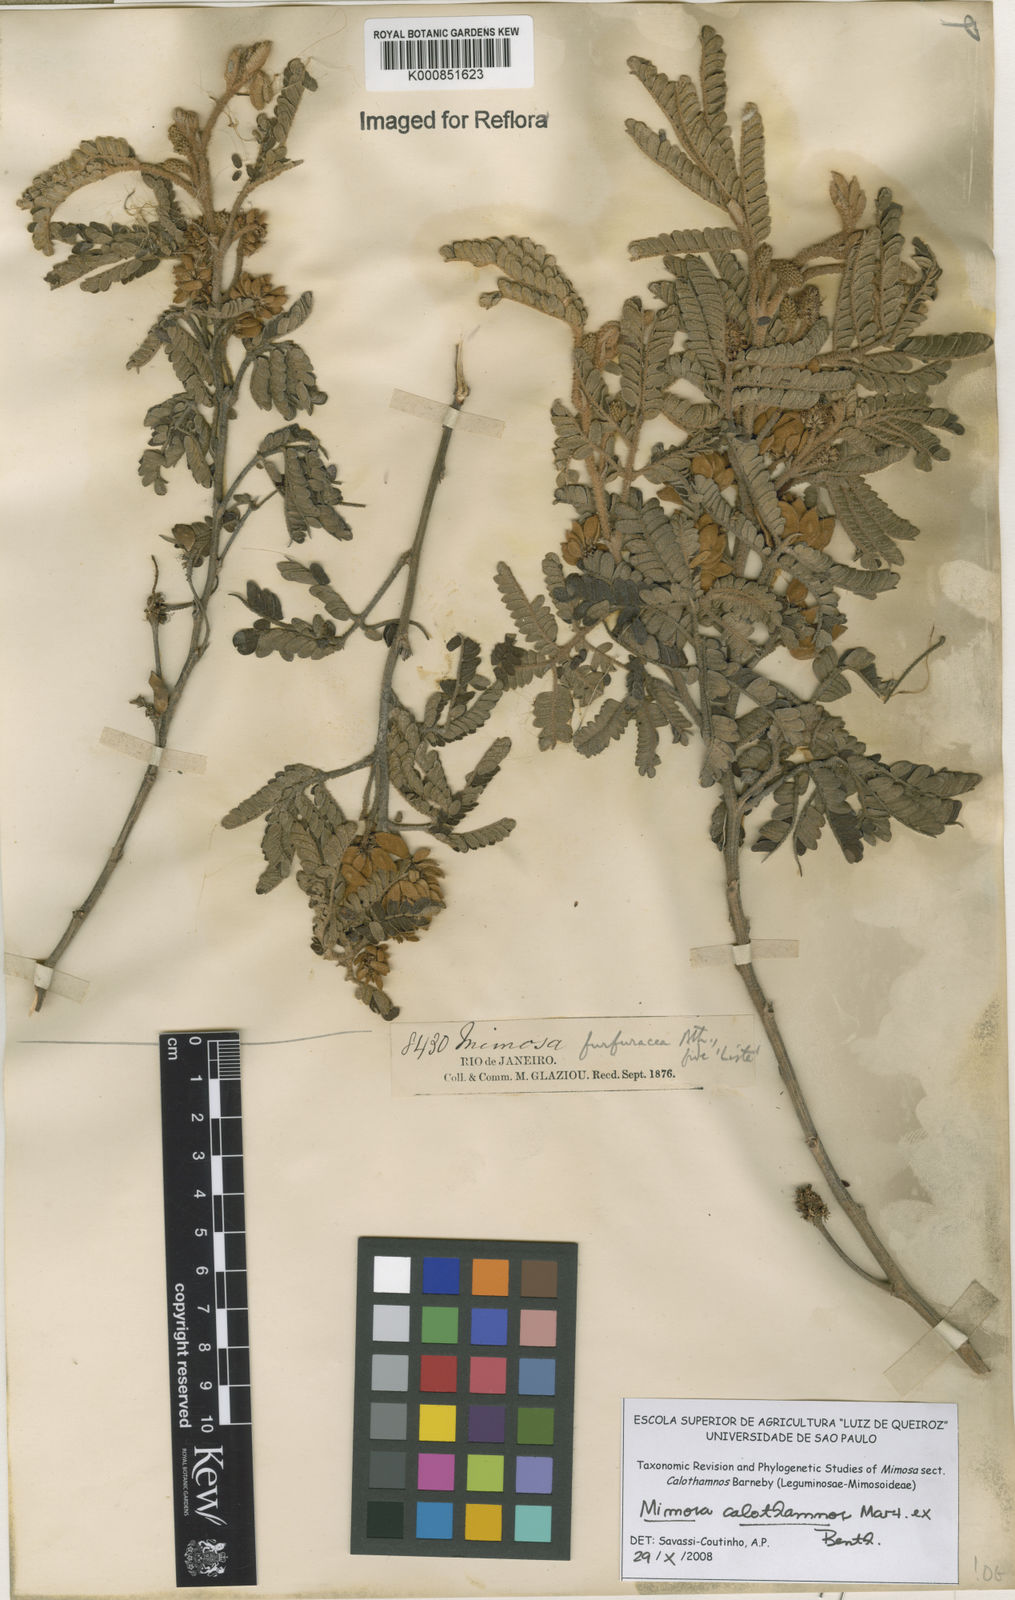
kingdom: Plantae
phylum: Tracheophyta
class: Magnoliopsida
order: Fabales
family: Fabaceae
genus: Mimosa
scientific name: Mimosa aurivillus
